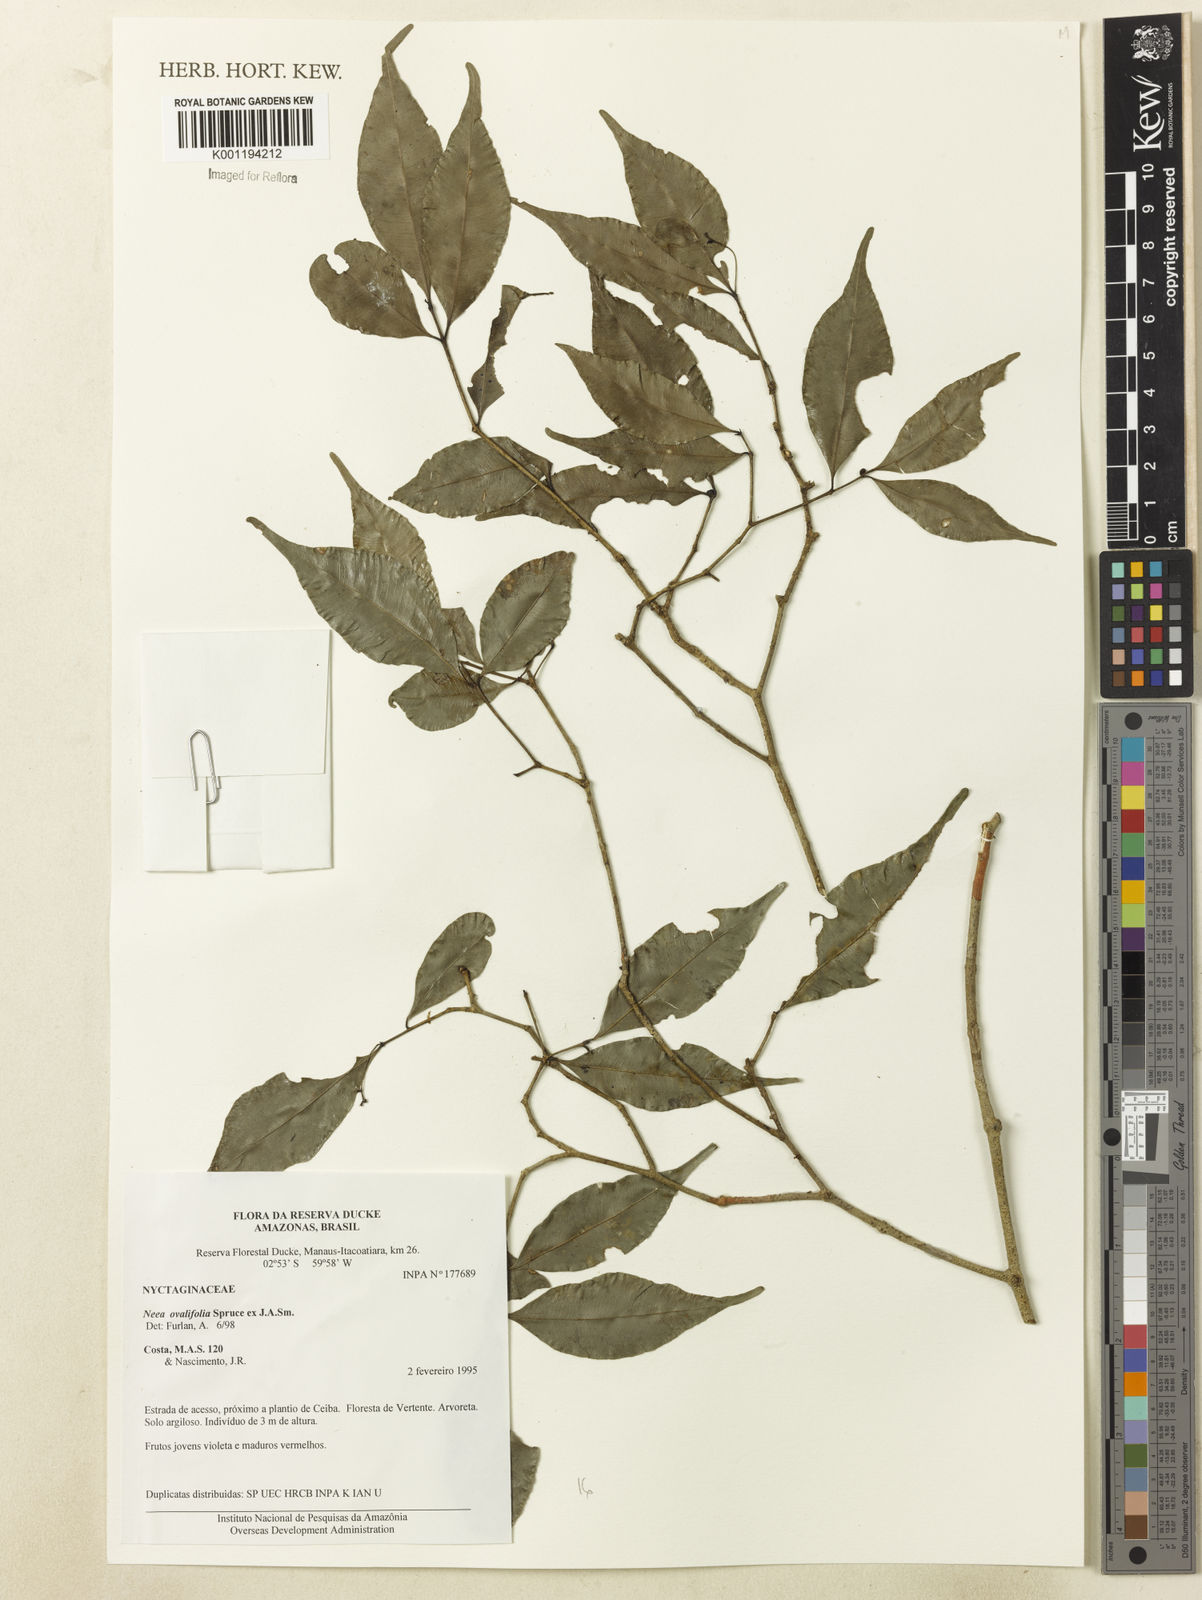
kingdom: Plantae
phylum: Tracheophyta
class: Magnoliopsida
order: Caryophyllales
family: Nyctaginaceae
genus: Neea
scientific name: Neea ovalifolia
